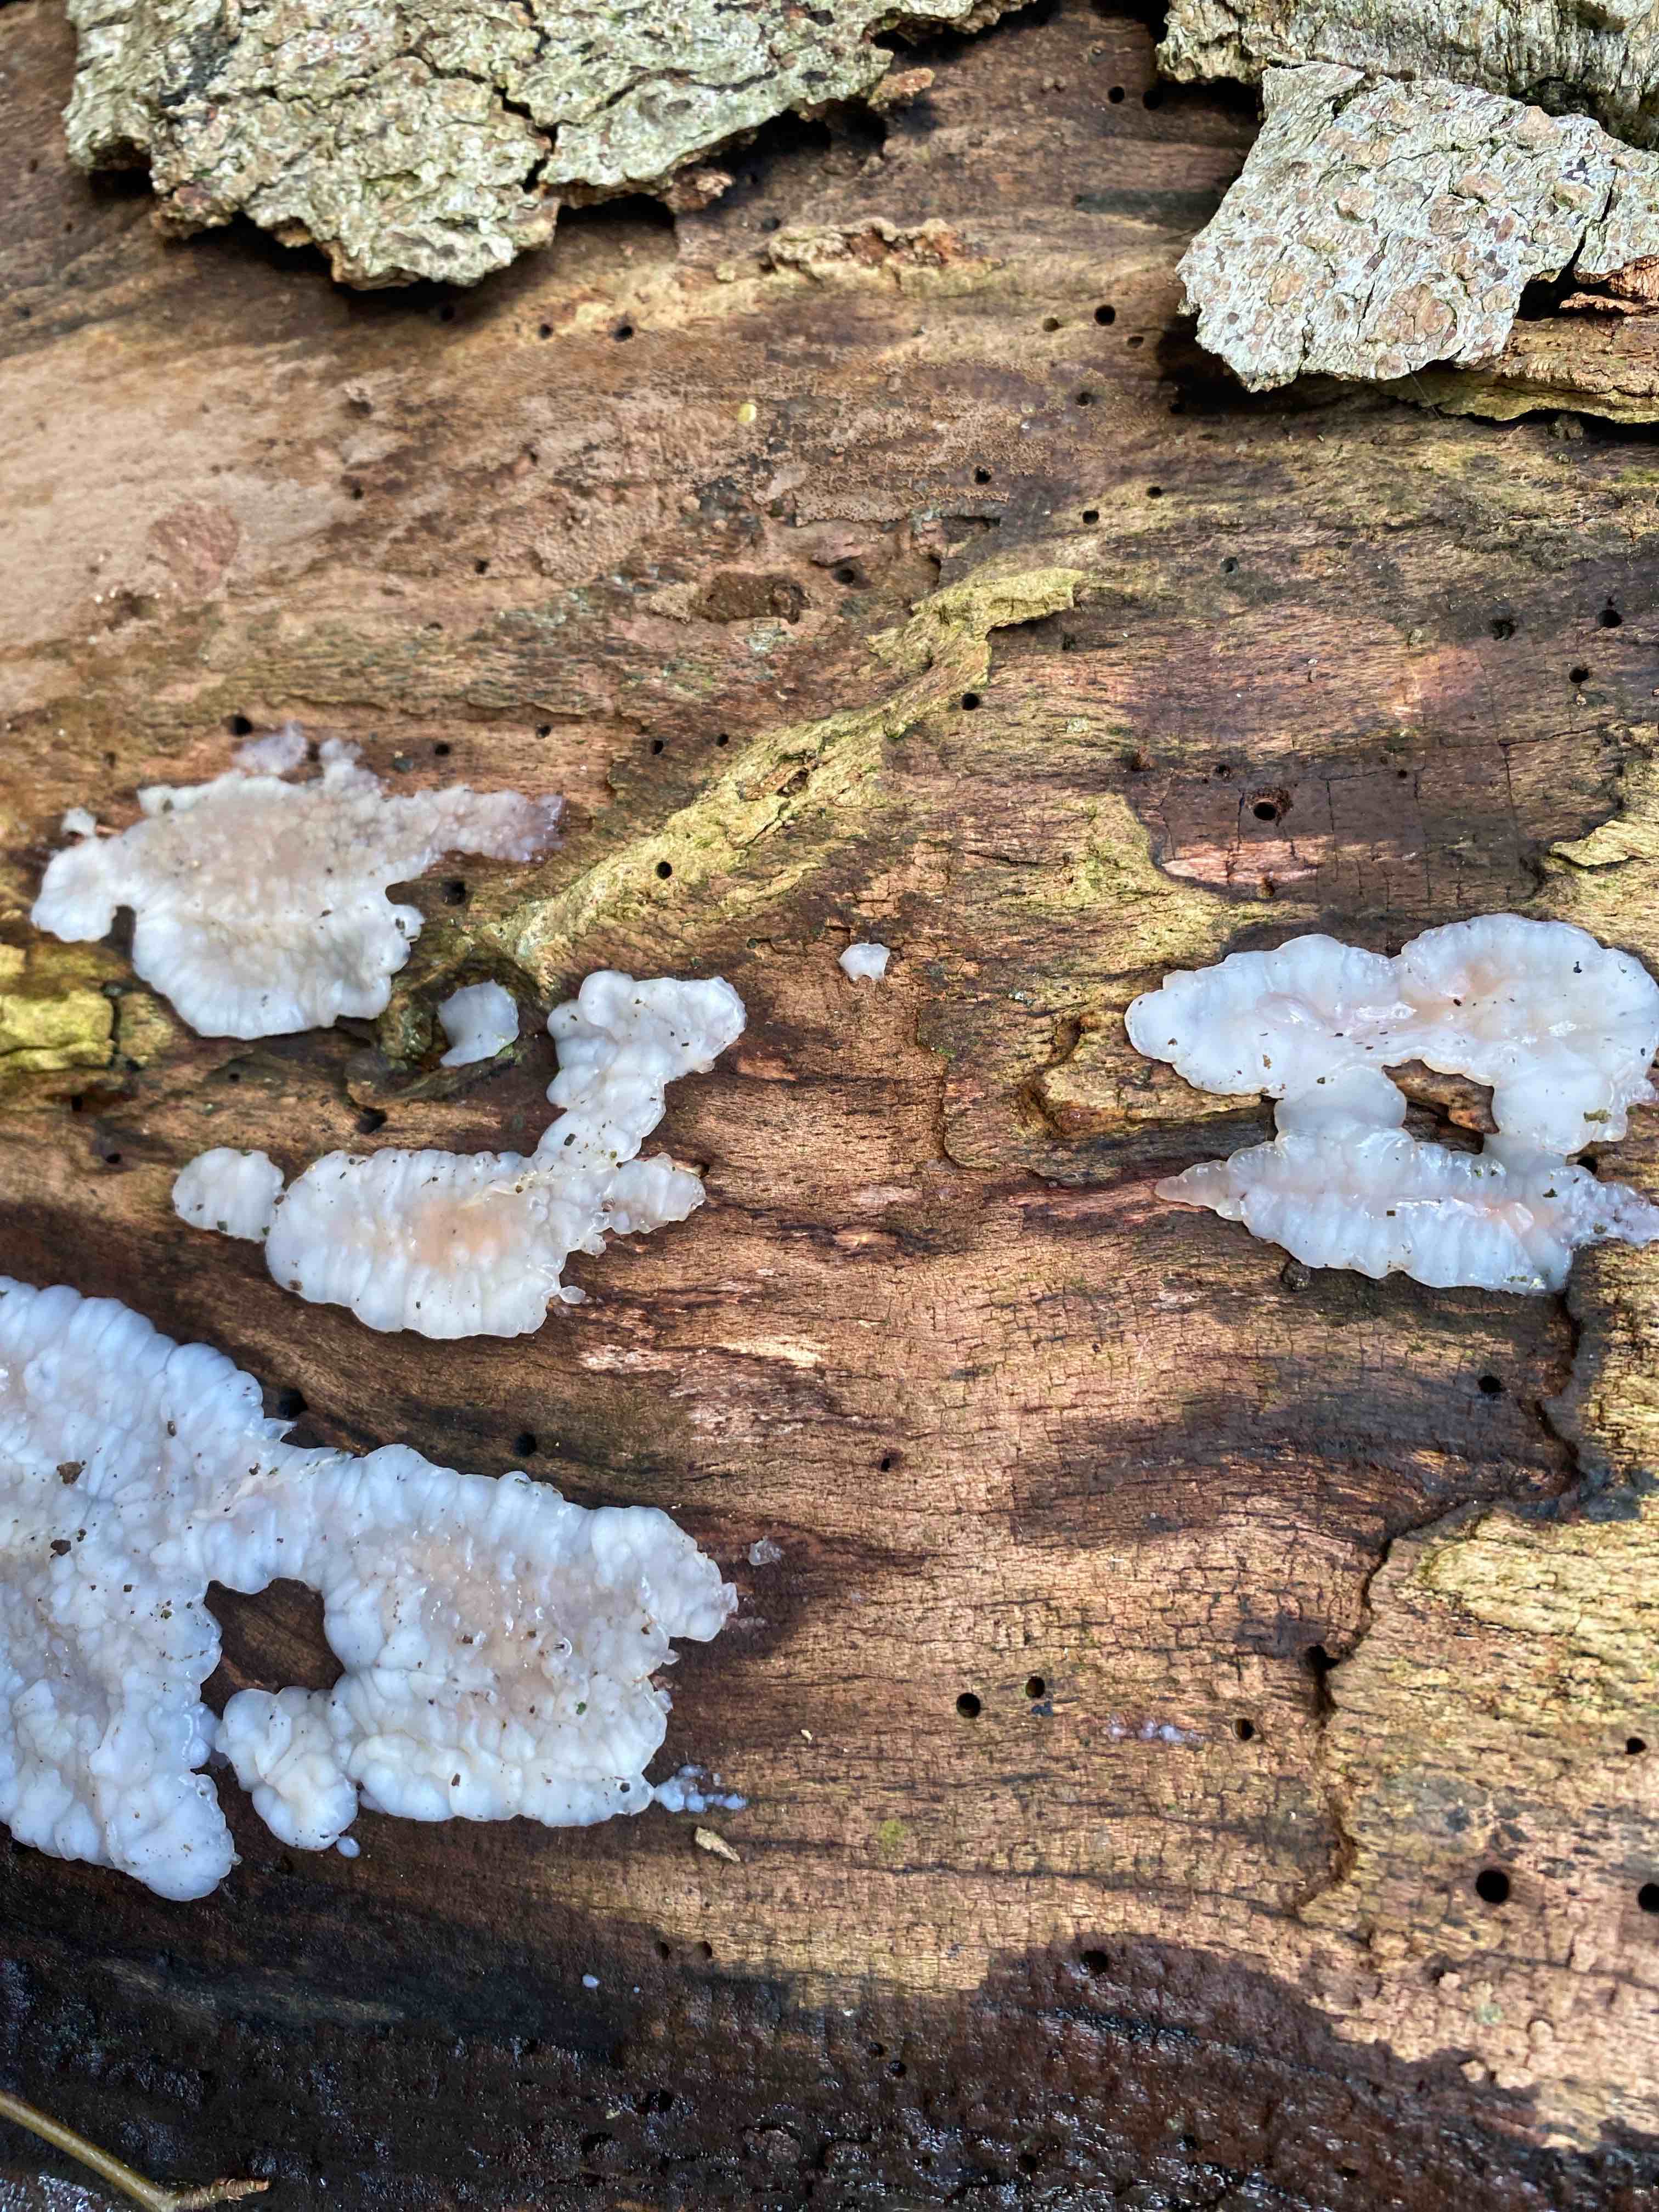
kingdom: Fungi
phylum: Basidiomycota
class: Agaricomycetes
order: Auriculariales
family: Auriculariaceae
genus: Exidia
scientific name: Exidia thuretiana
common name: hvidlig bævretop
